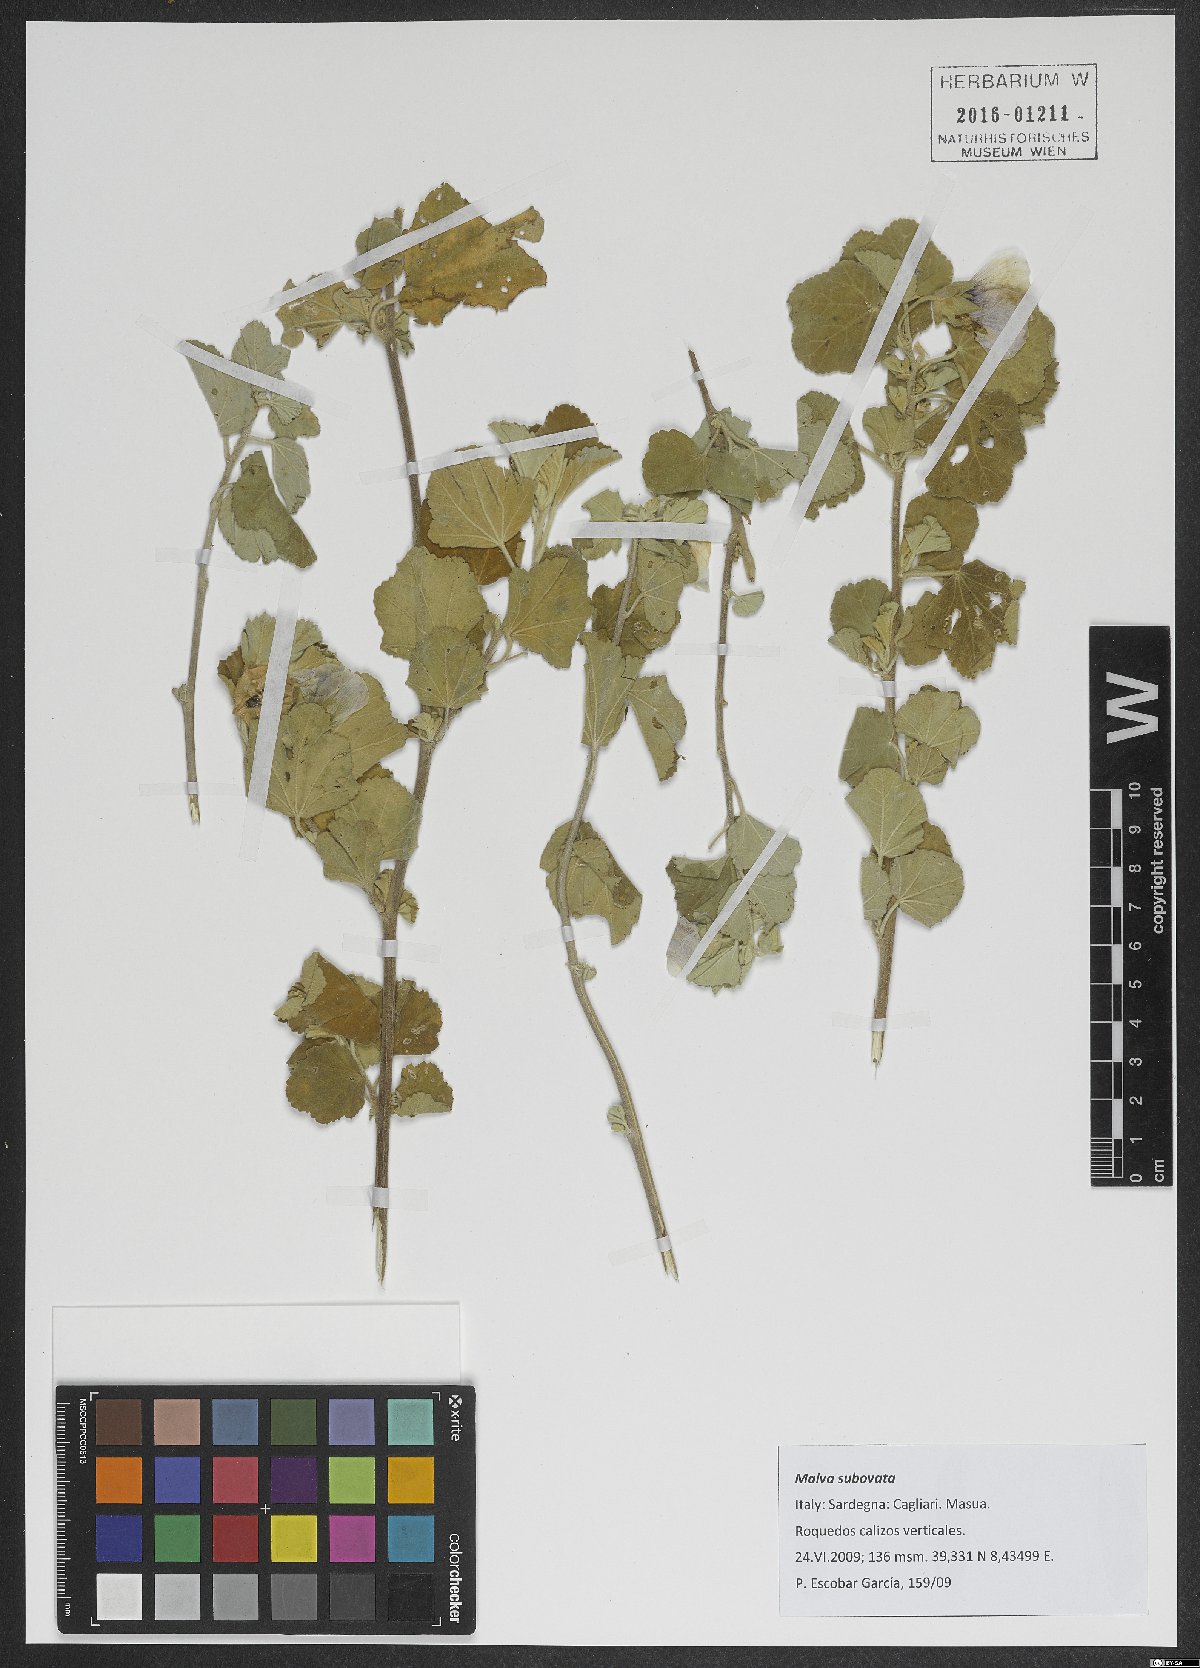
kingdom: Plantae
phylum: Tracheophyta
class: Magnoliopsida
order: Malvales
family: Malvaceae
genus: Malva
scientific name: Malva subovata
